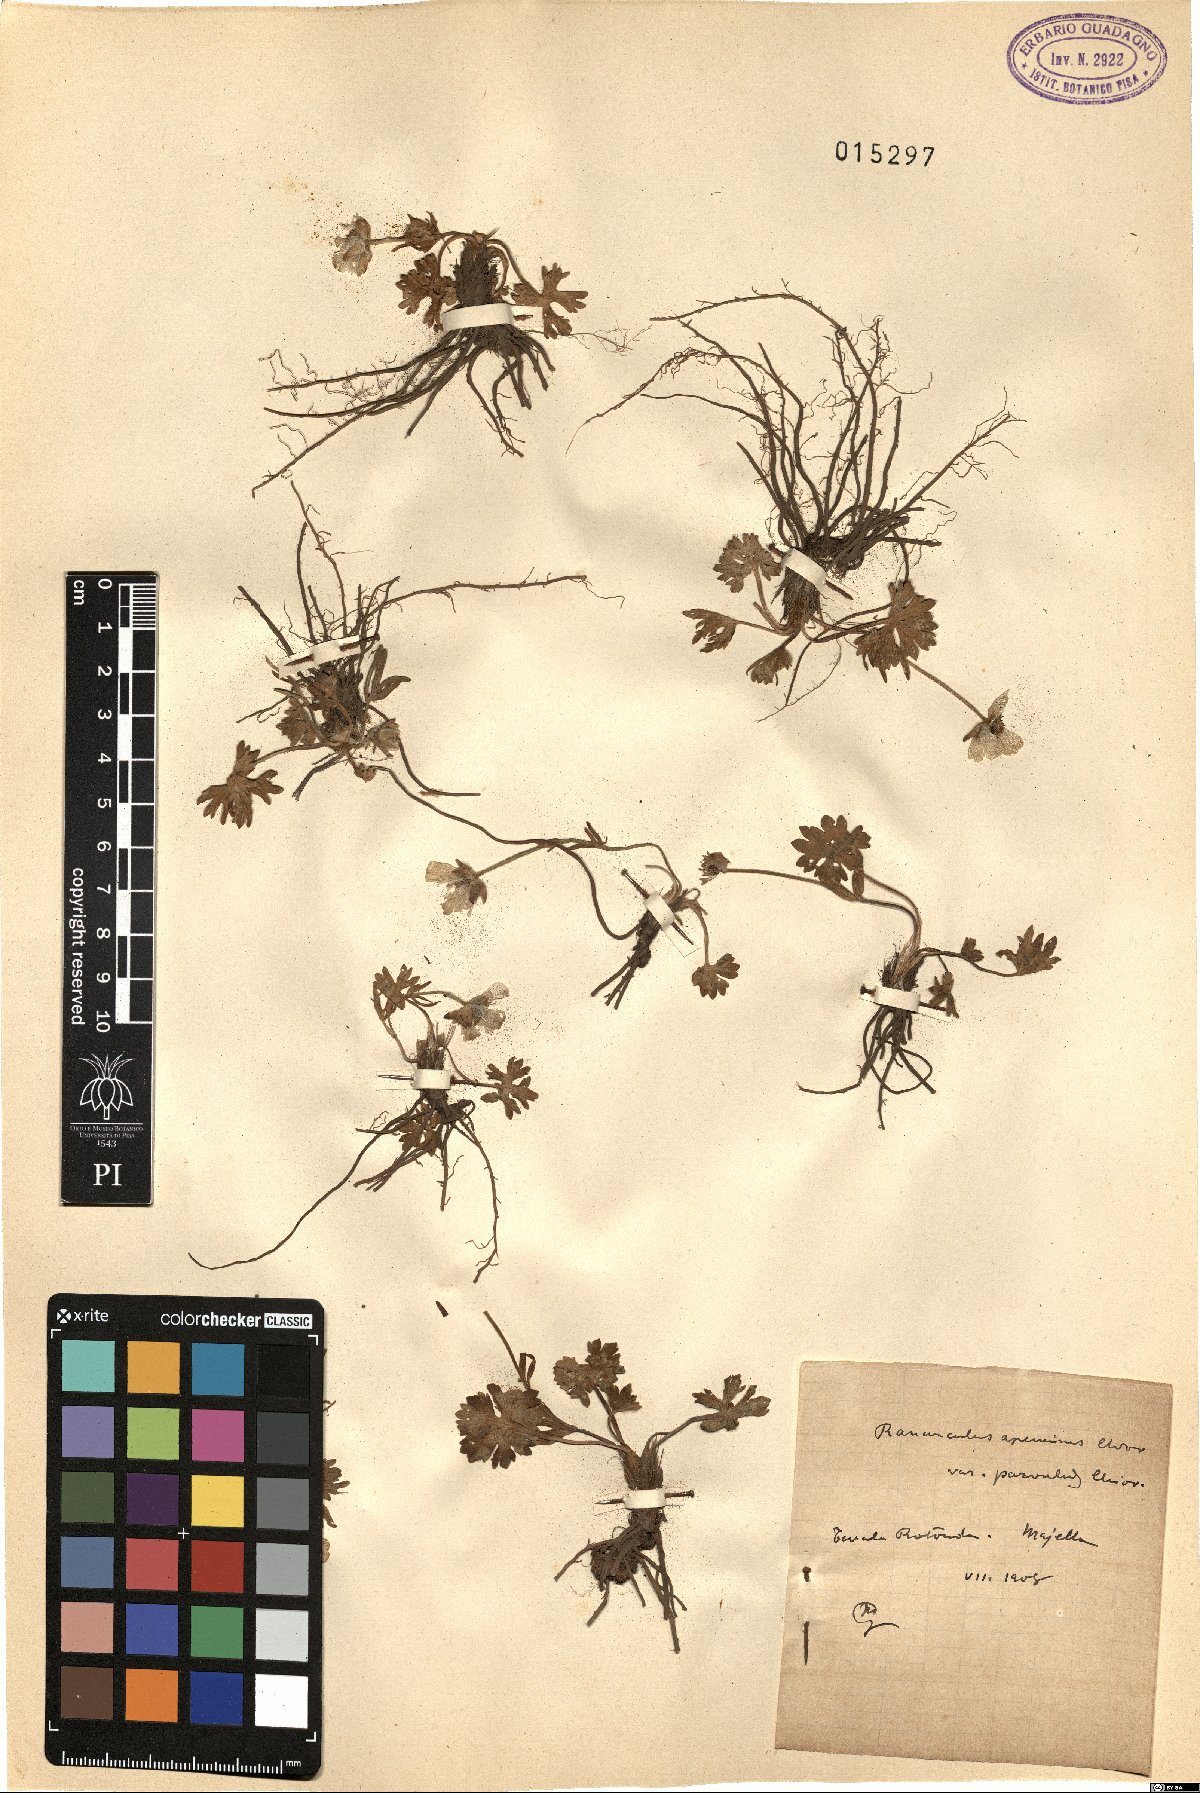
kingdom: Plantae
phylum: Tracheophyta
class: Magnoliopsida
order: Ranunculales
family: Ranunculaceae
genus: Ranunculus
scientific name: Ranunculus apenninus
